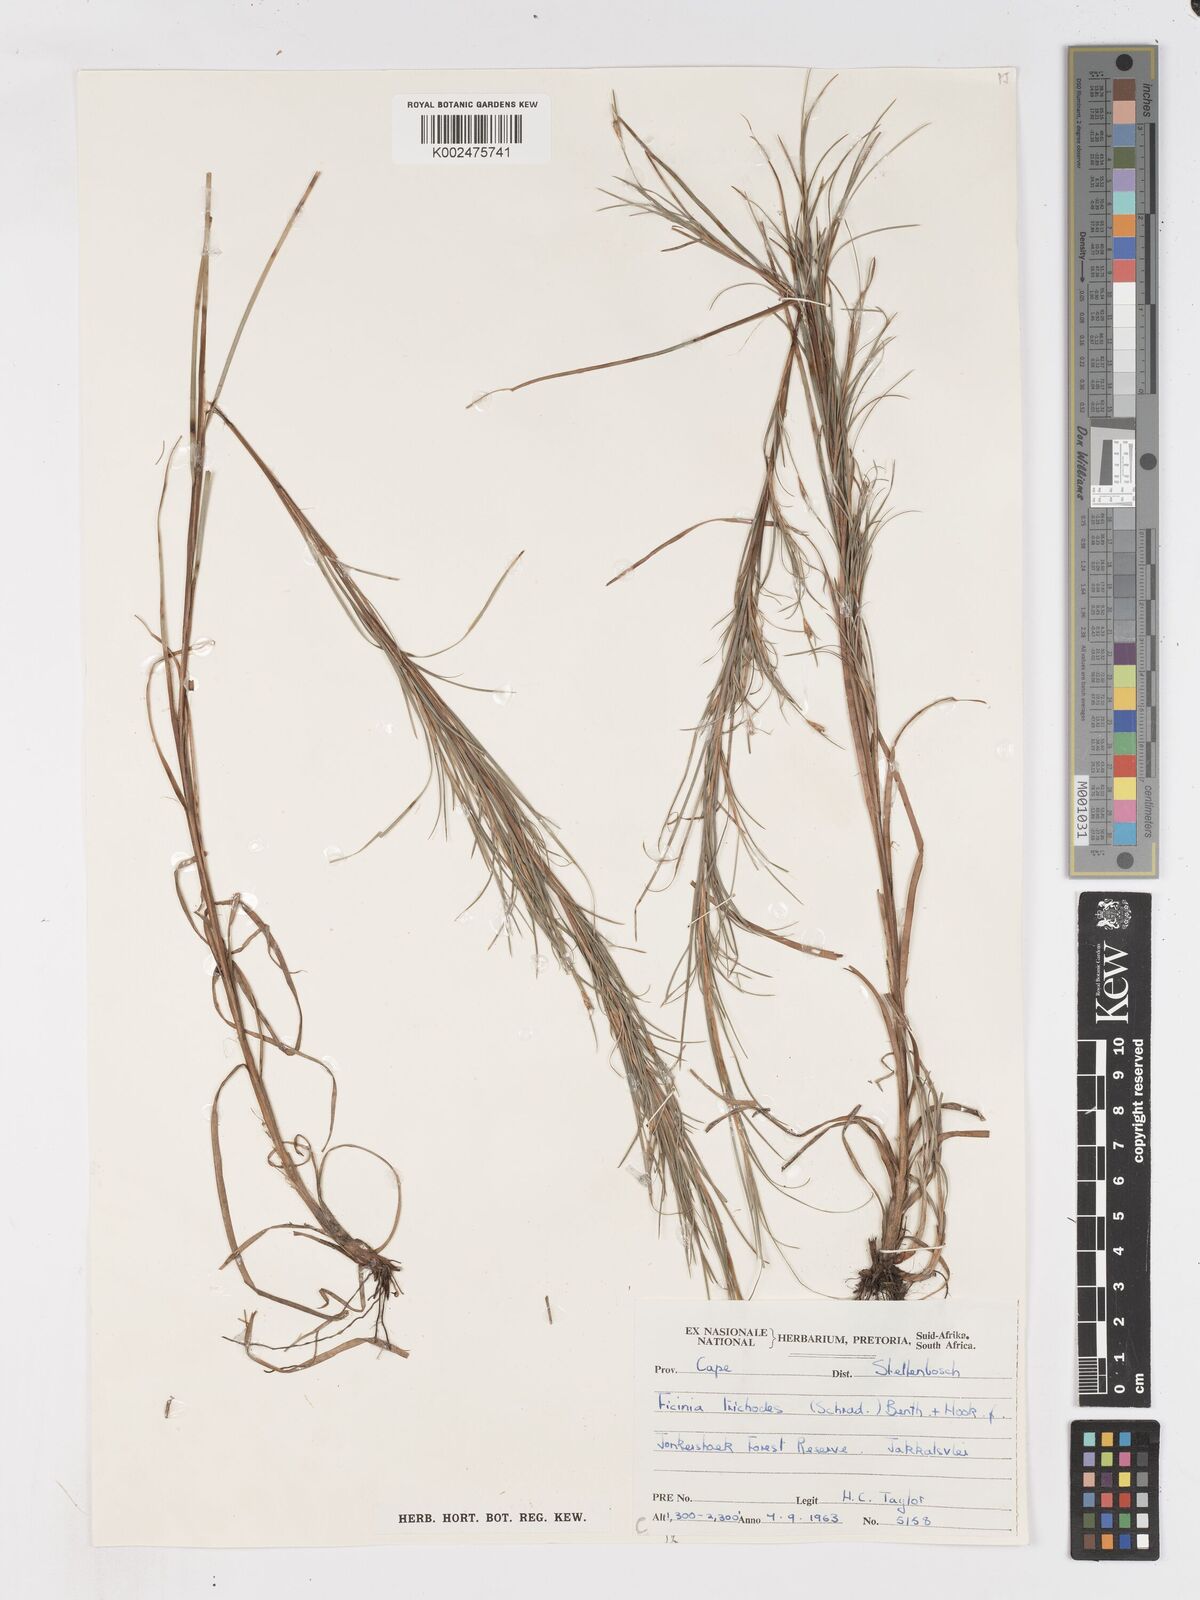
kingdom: Plantae
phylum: Tracheophyta
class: Liliopsida
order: Poales
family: Cyperaceae
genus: Ficinia
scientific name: Ficinia trichodes
